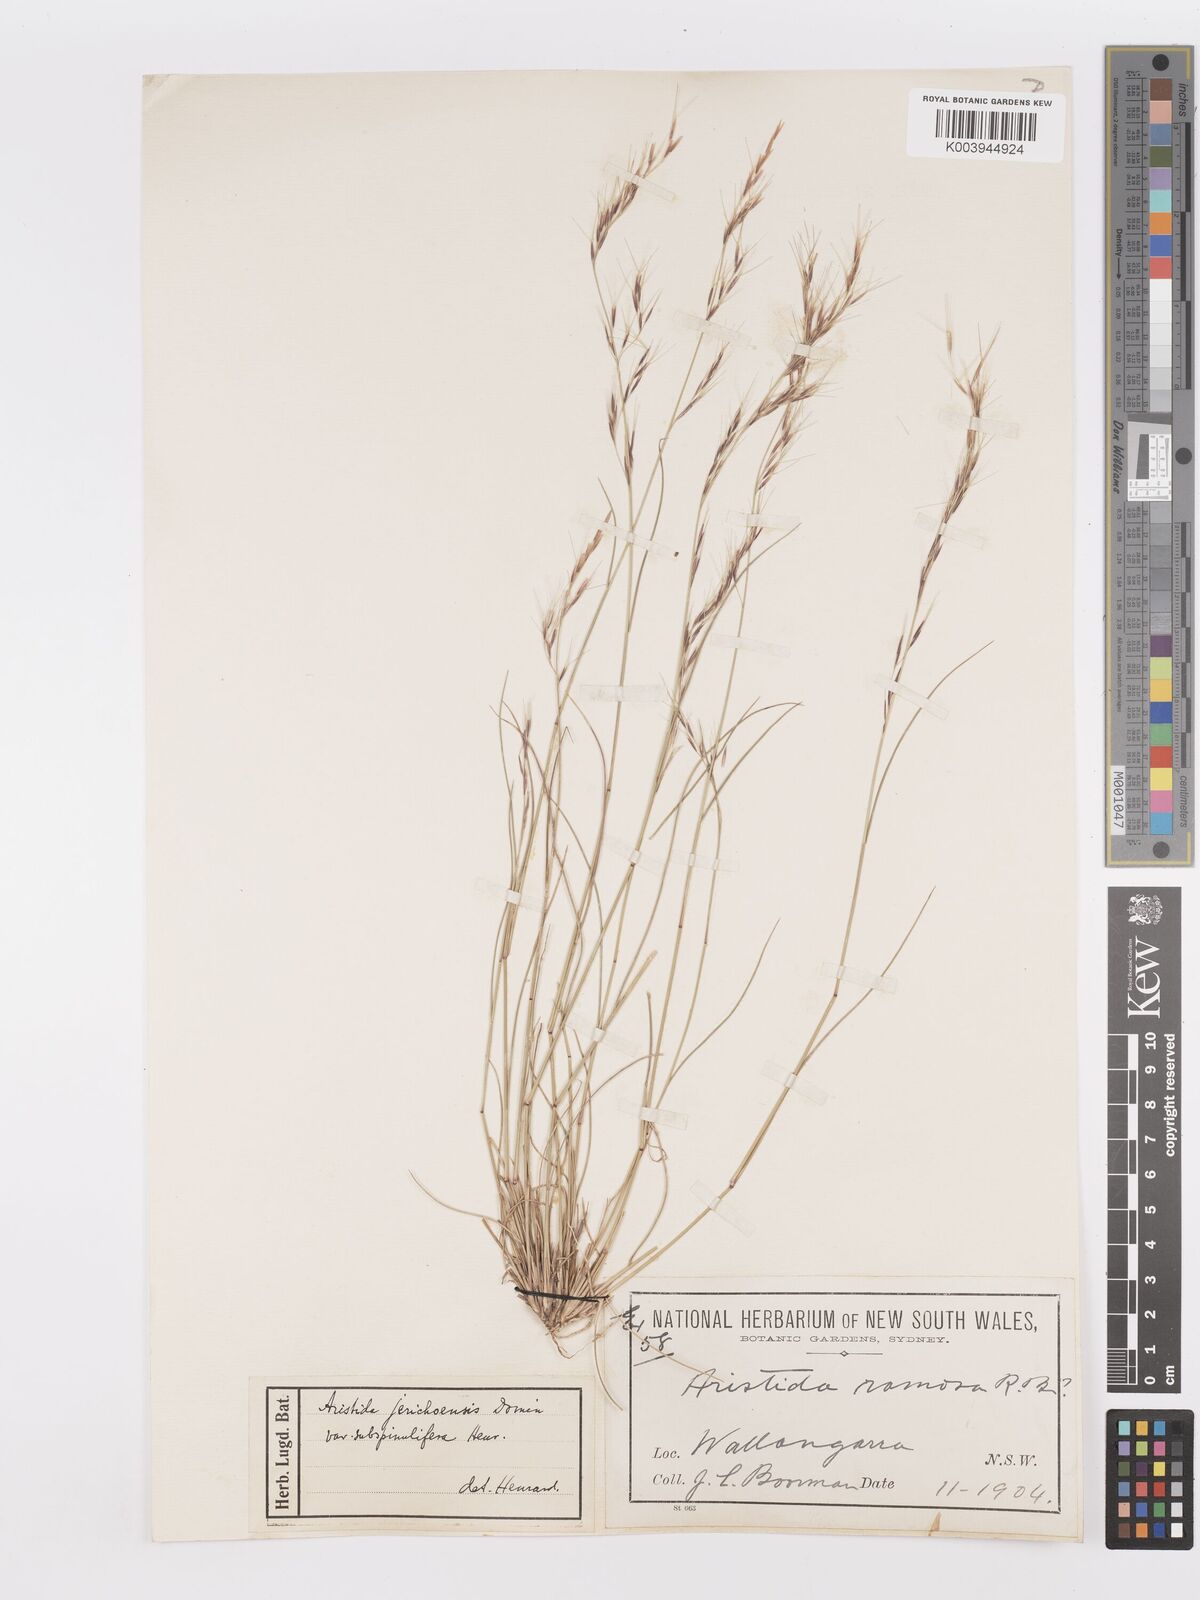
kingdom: Plantae
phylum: Tracheophyta
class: Liliopsida
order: Poales
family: Poaceae
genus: Aristida
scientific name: Aristida jerichoensis
